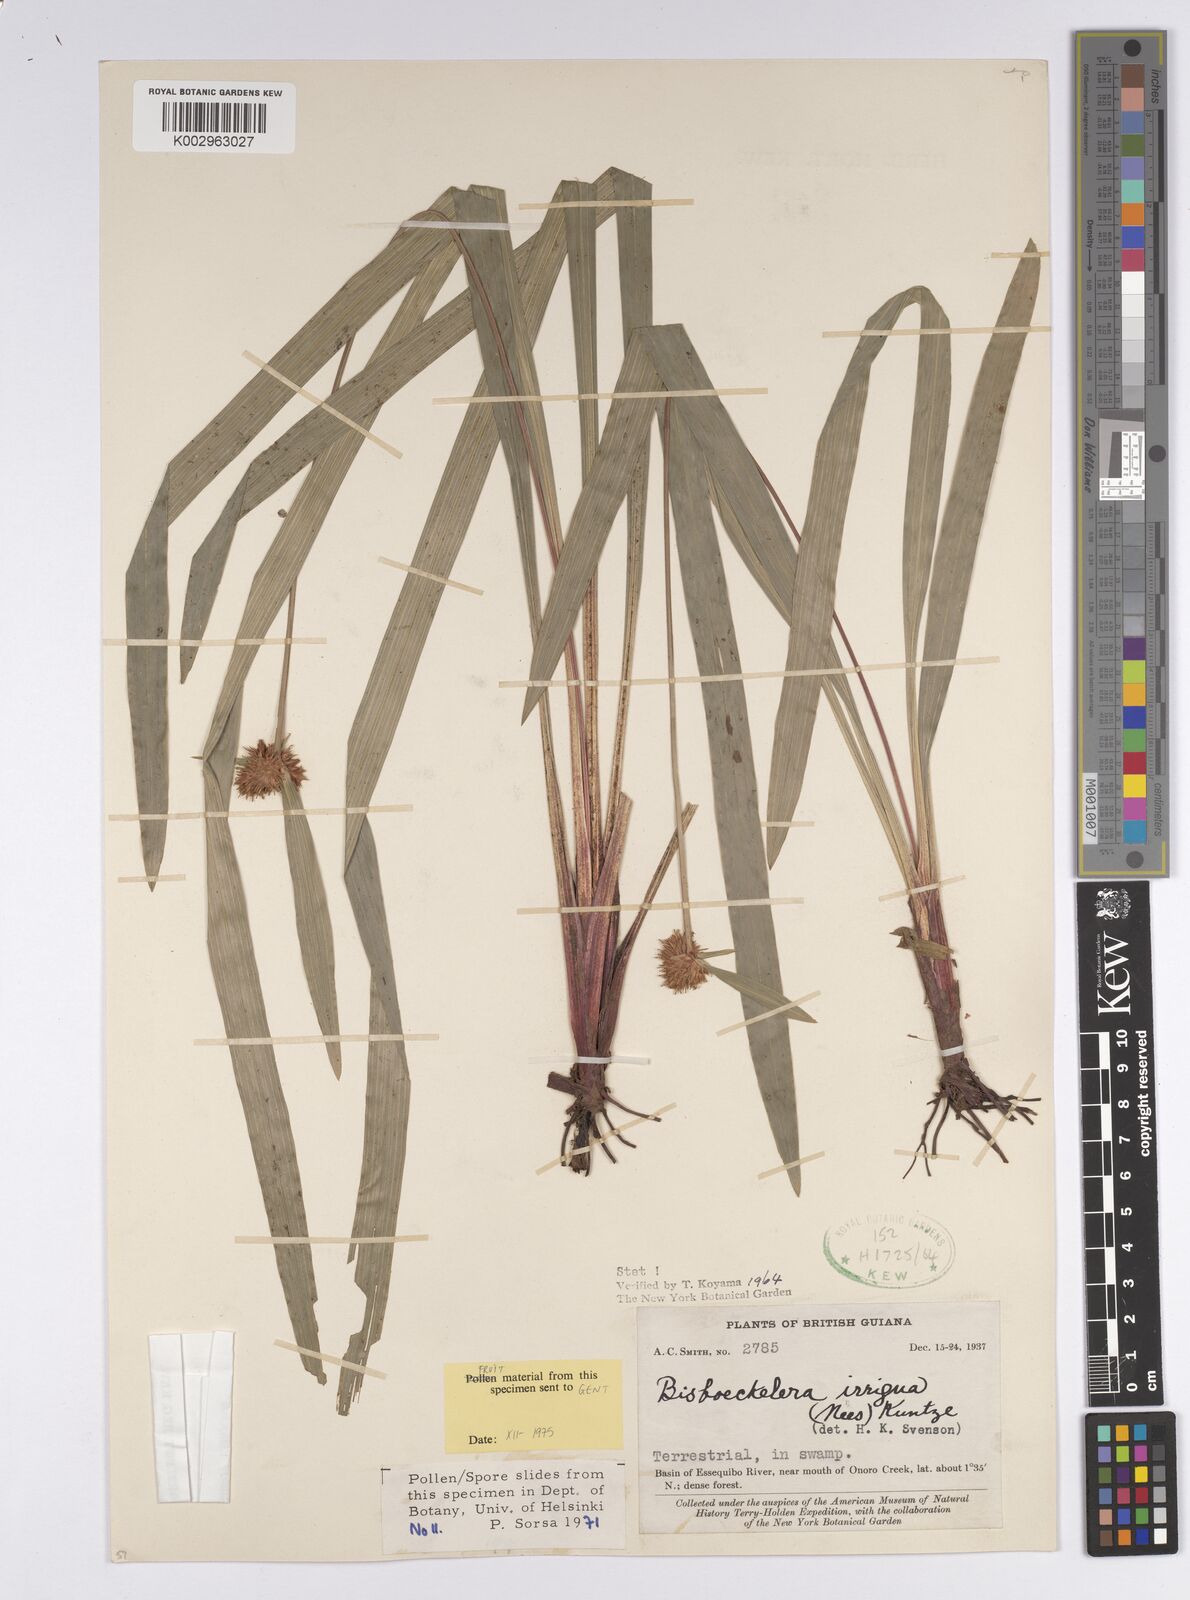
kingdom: Plantae
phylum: Tracheophyta
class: Liliopsida
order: Poales
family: Cyperaceae
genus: Bisboeckelera
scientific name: Bisboeckelera irrigua
